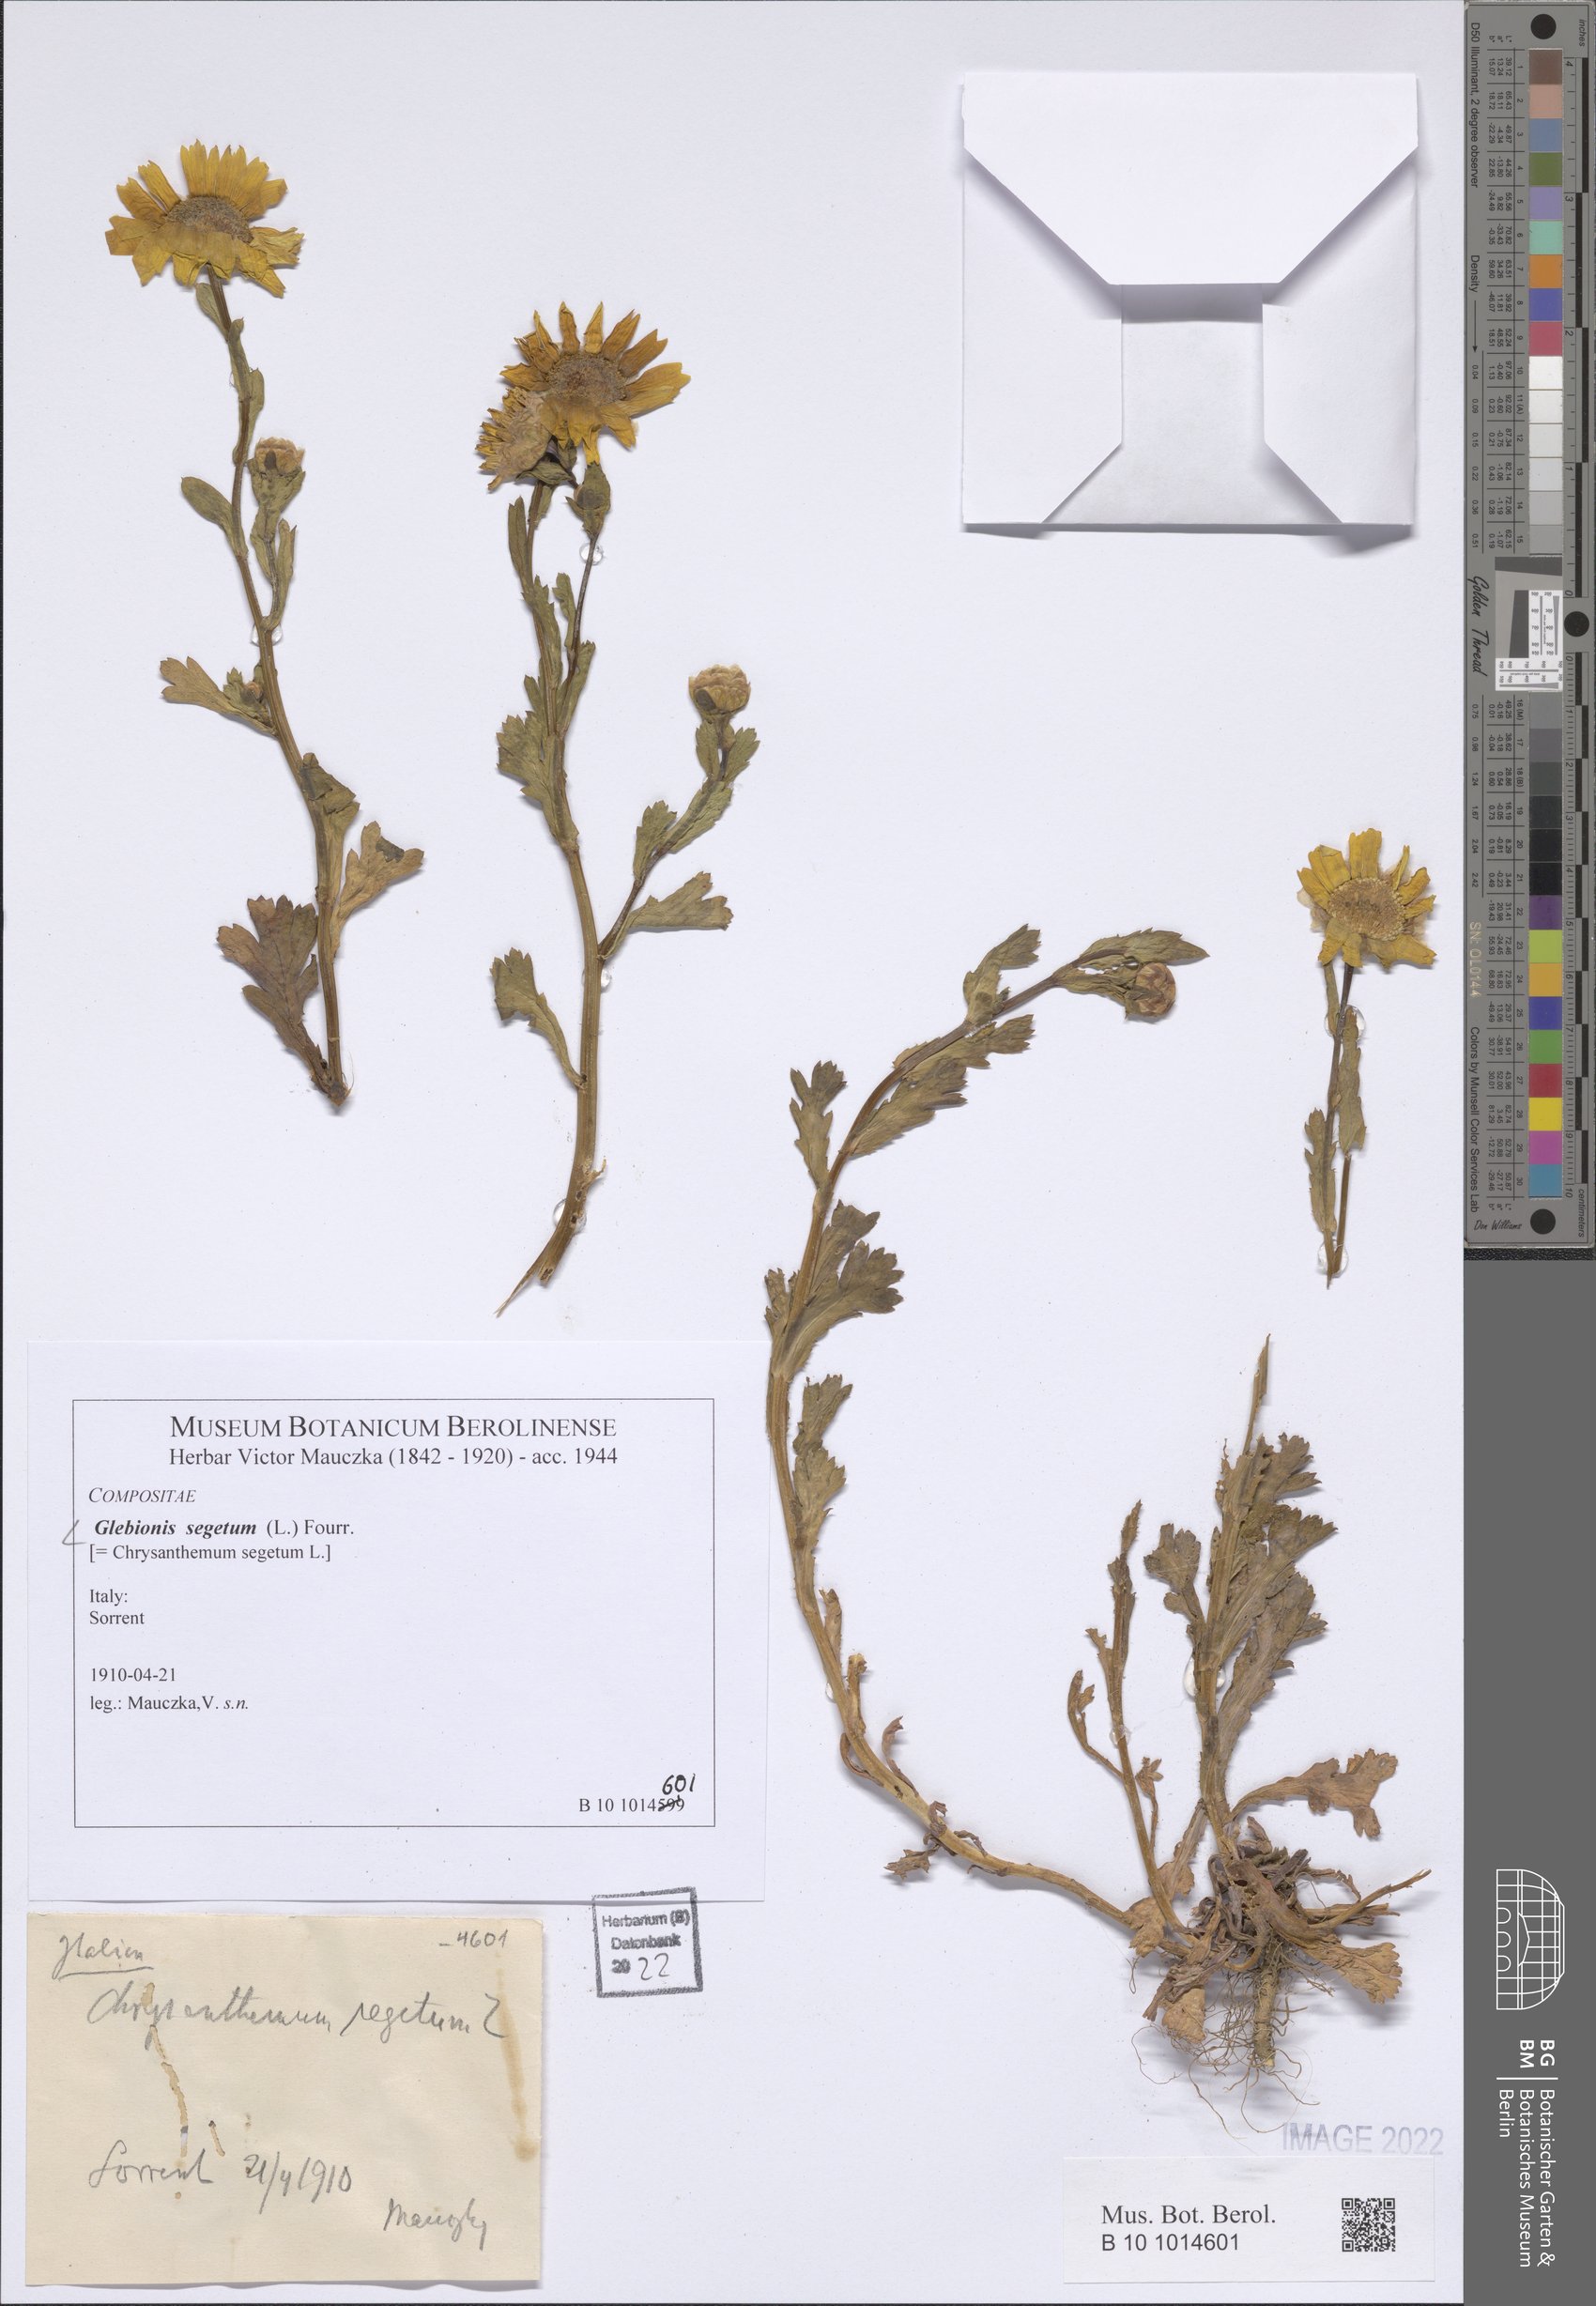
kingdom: Plantae
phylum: Tracheophyta
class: Magnoliopsida
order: Asterales
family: Asteraceae
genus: Glebionis
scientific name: Glebionis segetum
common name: Corndaisy
